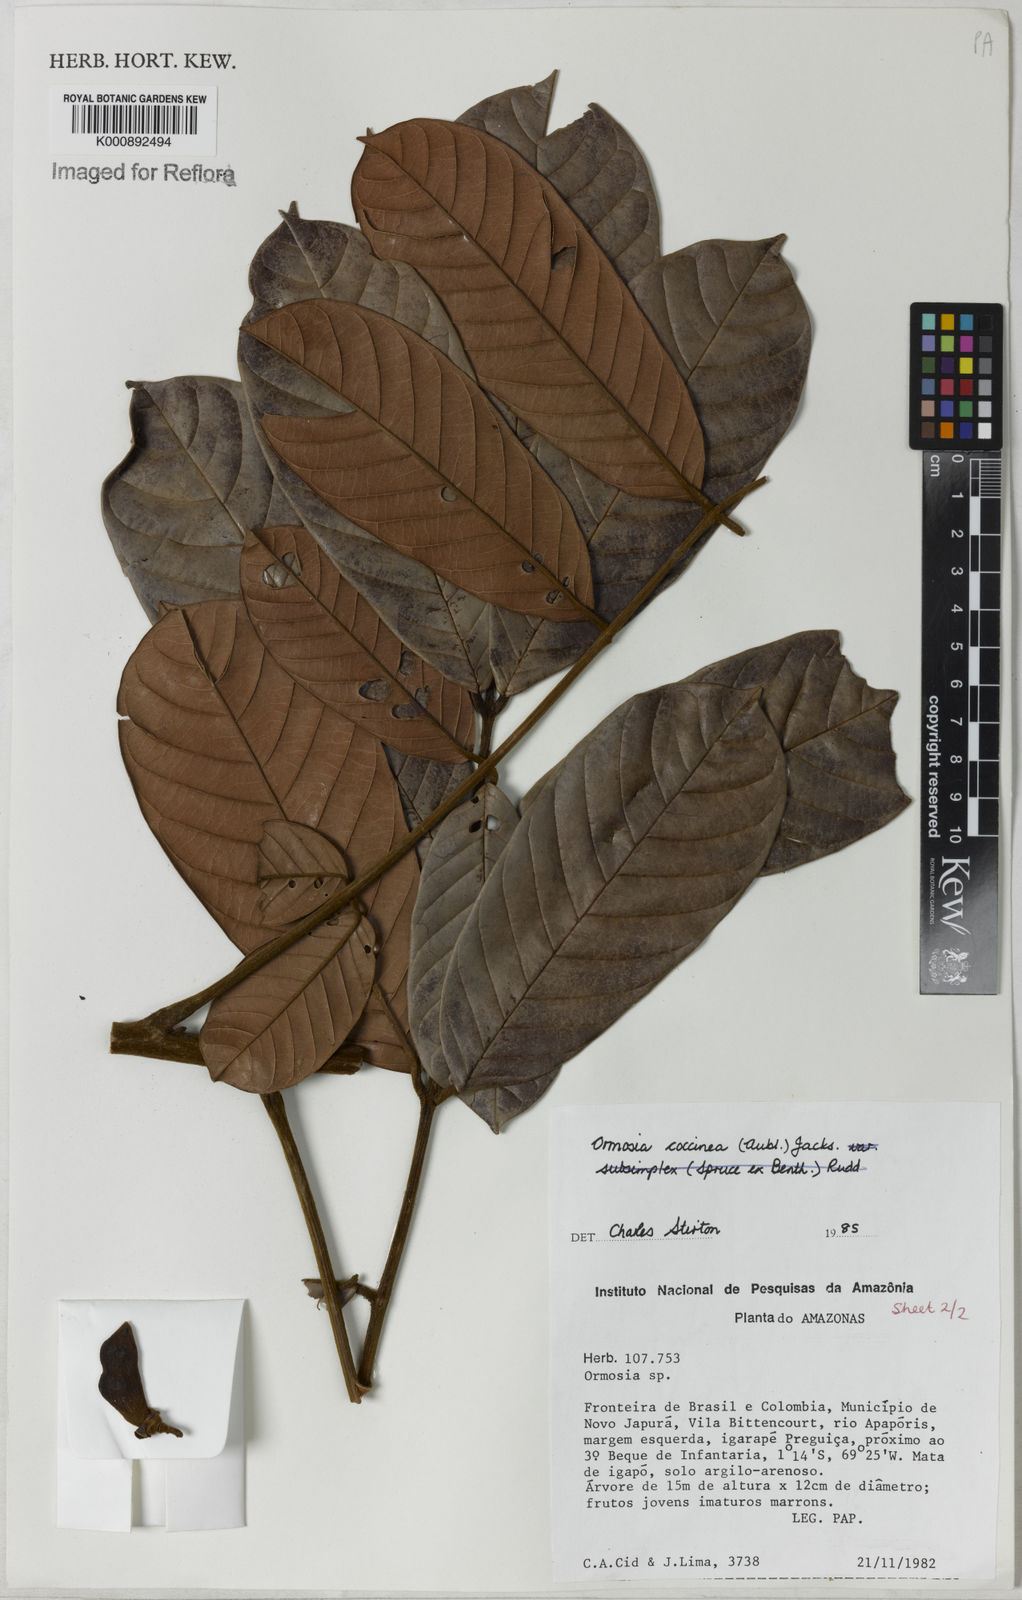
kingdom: Plantae
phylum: Tracheophyta
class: Magnoliopsida
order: Fabales
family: Fabaceae
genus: Ormosia
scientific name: Ormosia coccinea
